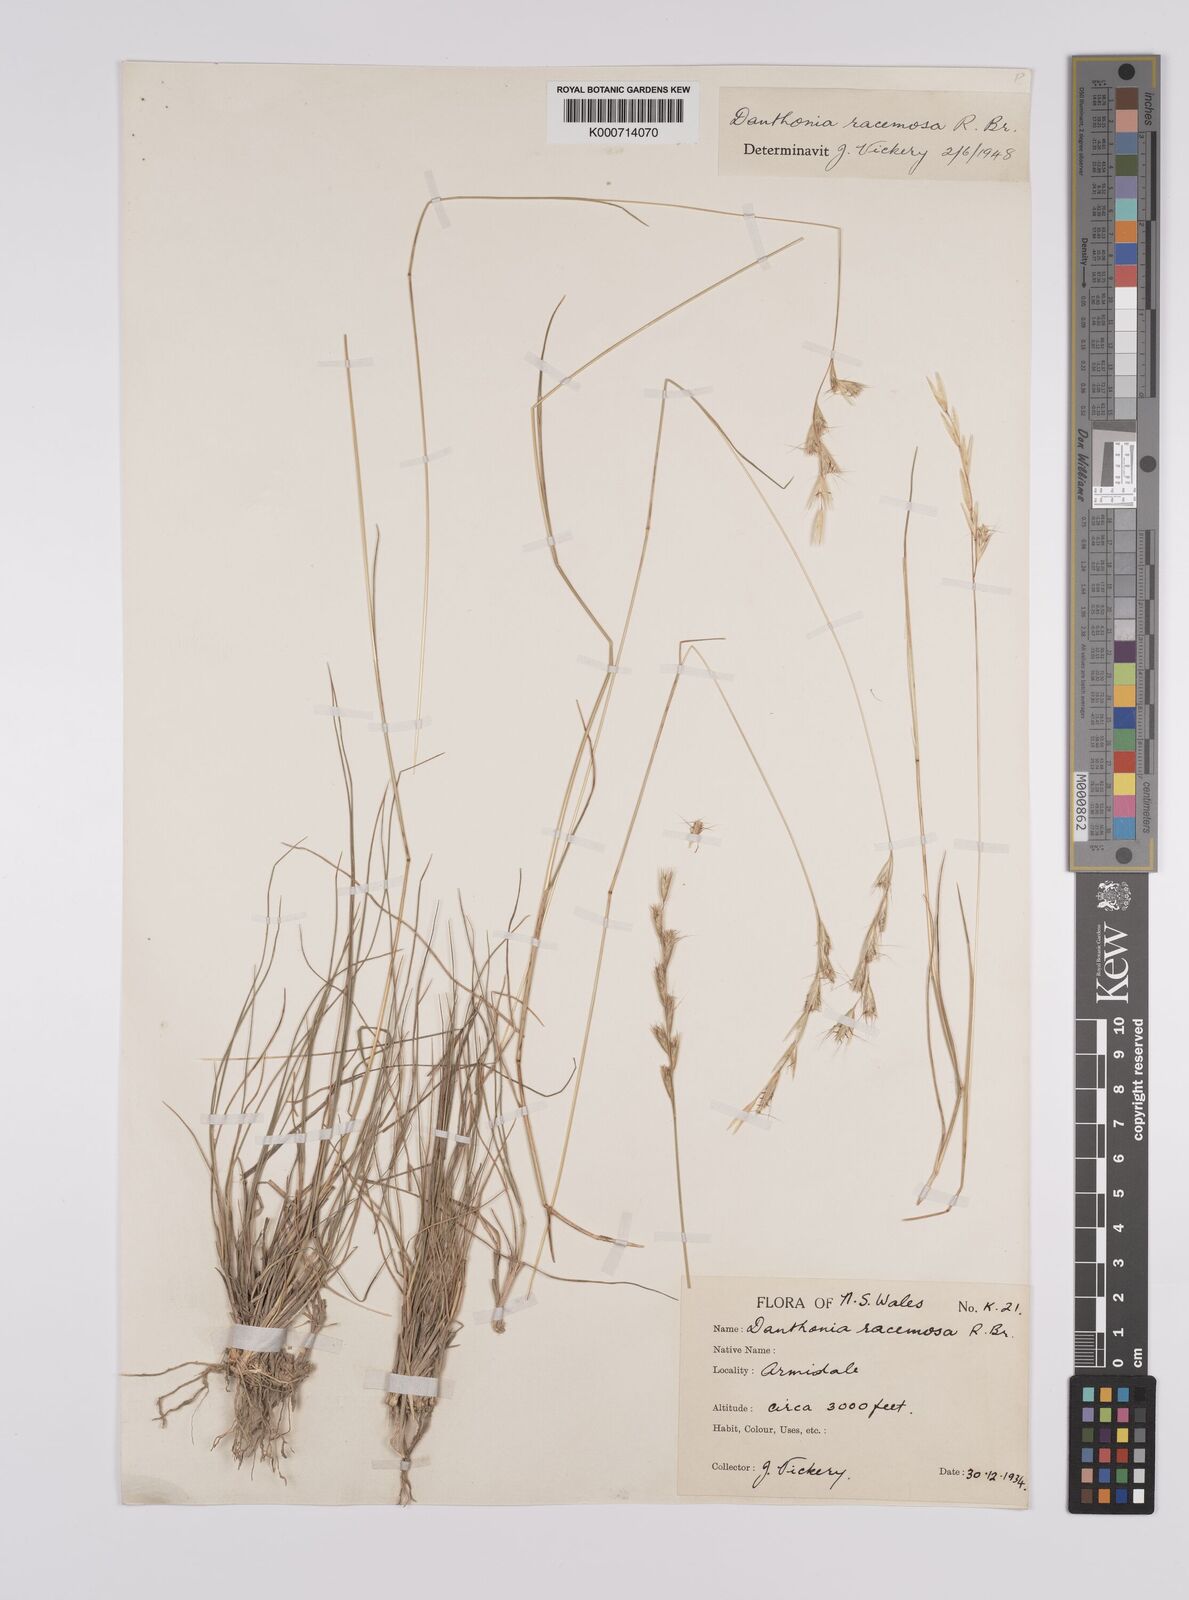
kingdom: Plantae
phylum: Tracheophyta
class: Liliopsida
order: Poales
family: Poaceae
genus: Rytidosperma
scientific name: Rytidosperma racemosum
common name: Wallaby-grass
